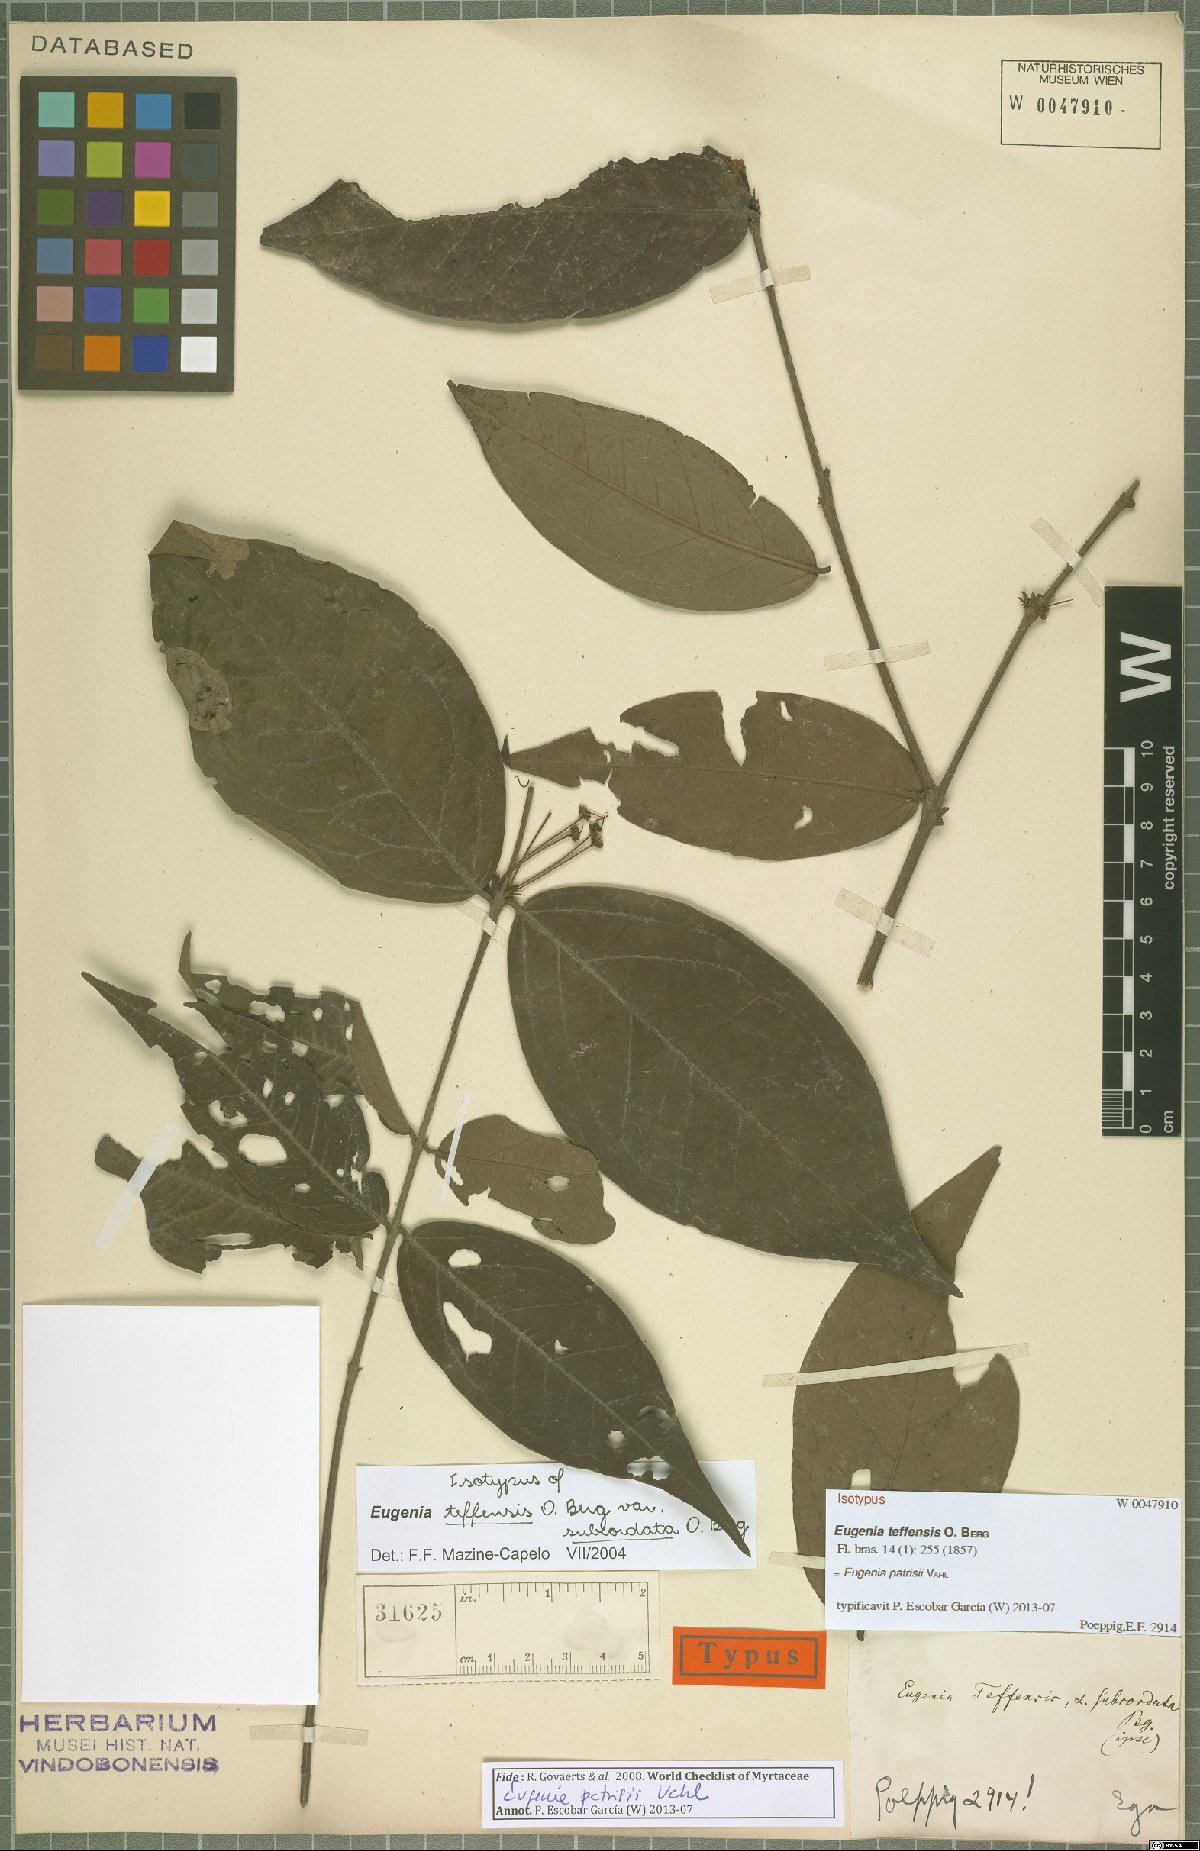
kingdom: Plantae
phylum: Tracheophyta
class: Magnoliopsida
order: Myrtales
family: Myrtaceae
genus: Eugenia
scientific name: Eugenia patrisii
